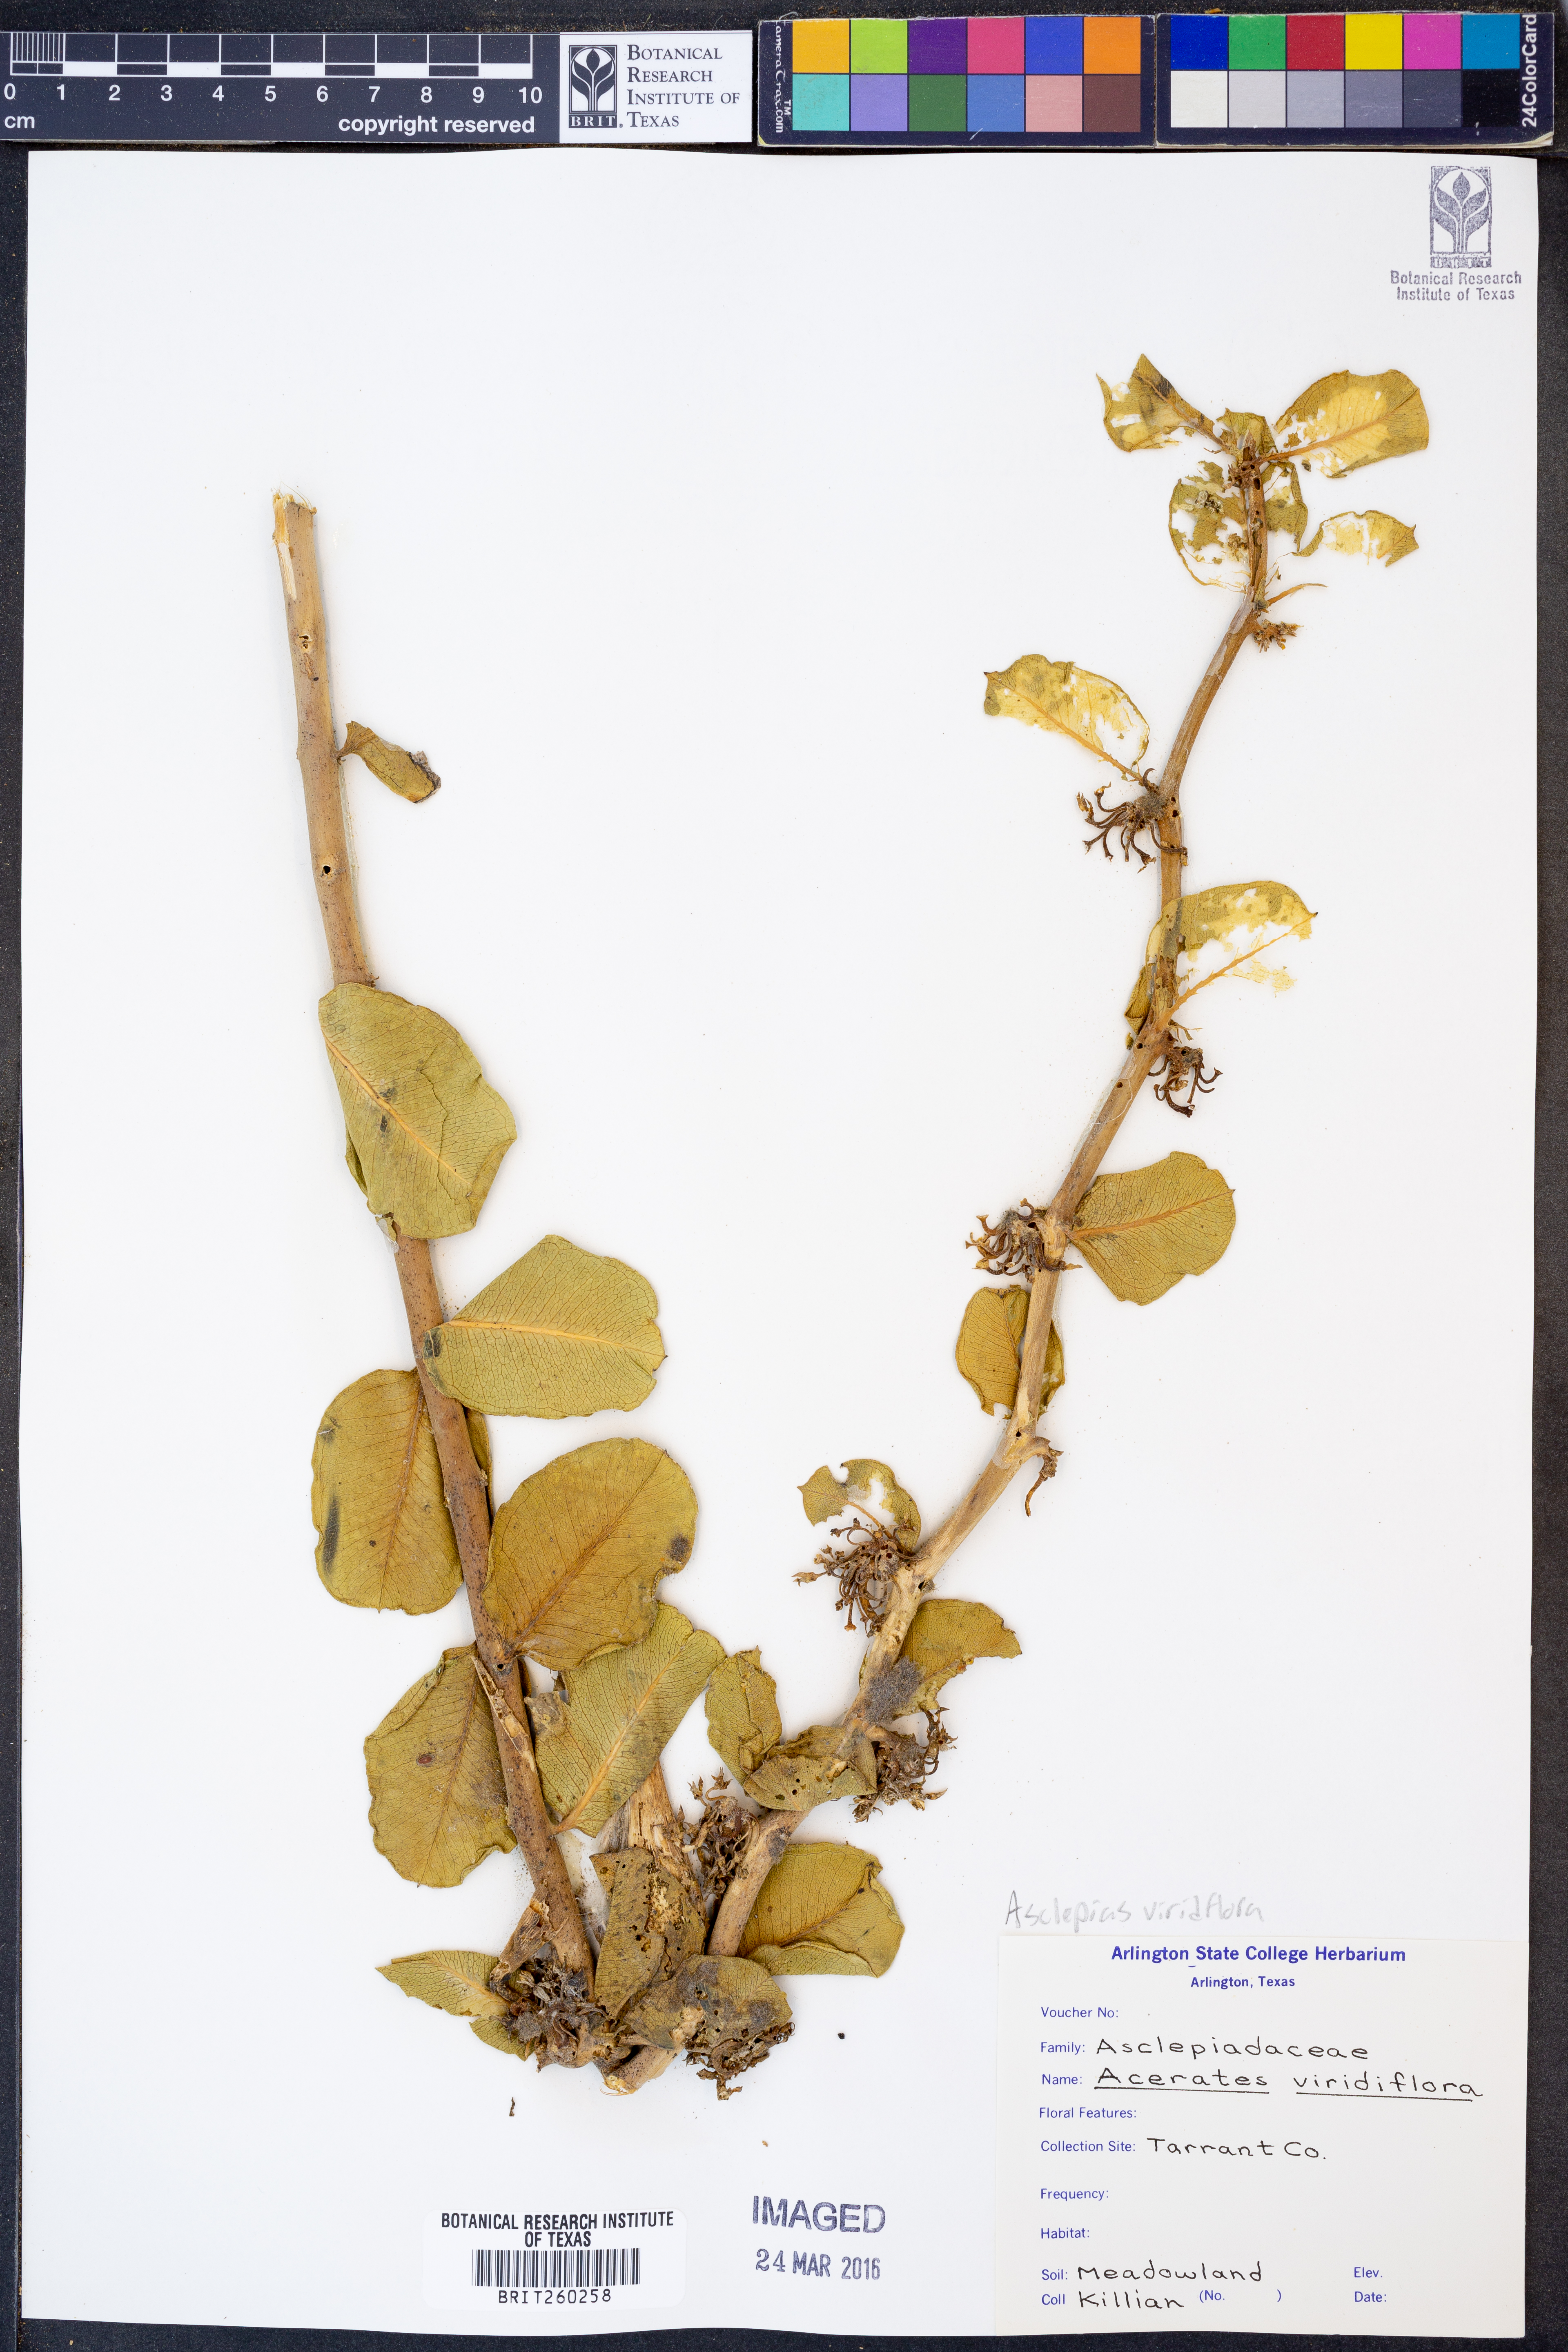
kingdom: Plantae
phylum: Tracheophyta
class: Magnoliopsida
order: Gentianales
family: Apocynaceae
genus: Asclepias
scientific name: Asclepias viridiflora
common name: Green comet milkweed
